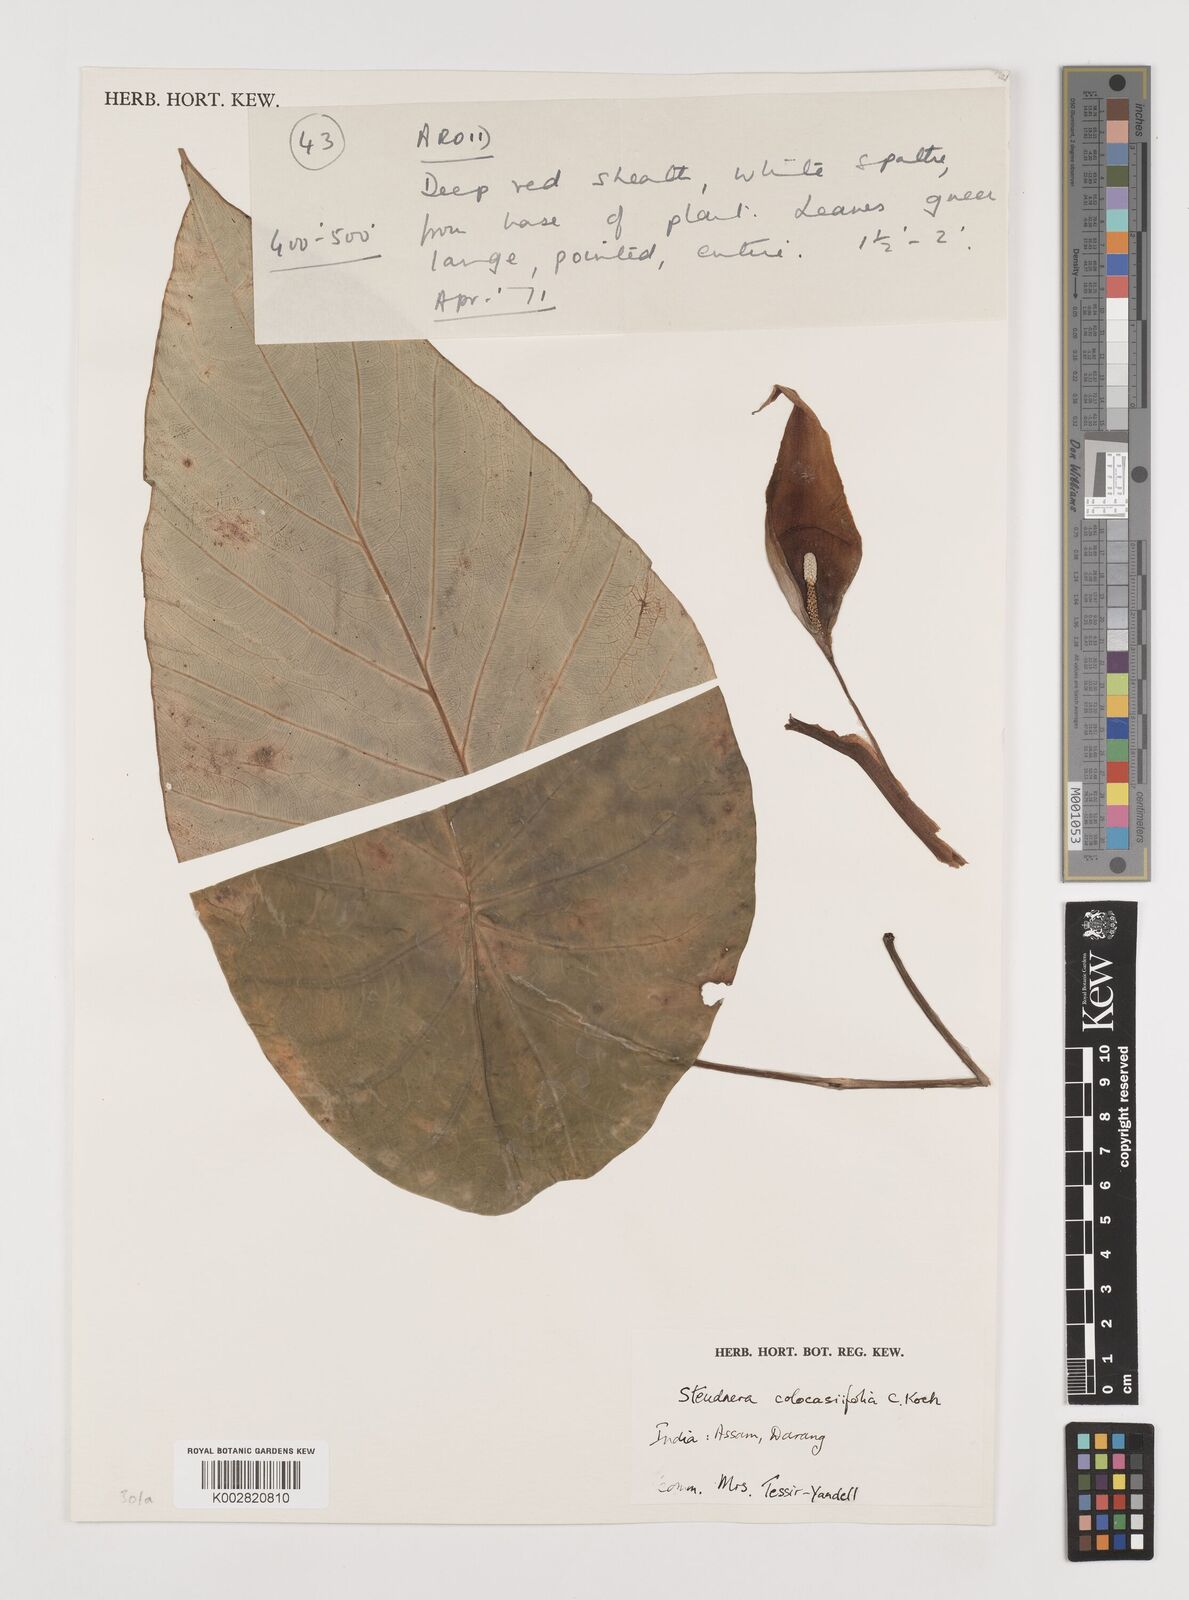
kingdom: Plantae
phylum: Tracheophyta
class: Liliopsida
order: Alismatales
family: Araceae
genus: Steudnera
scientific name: Steudnera colocasiifolia
